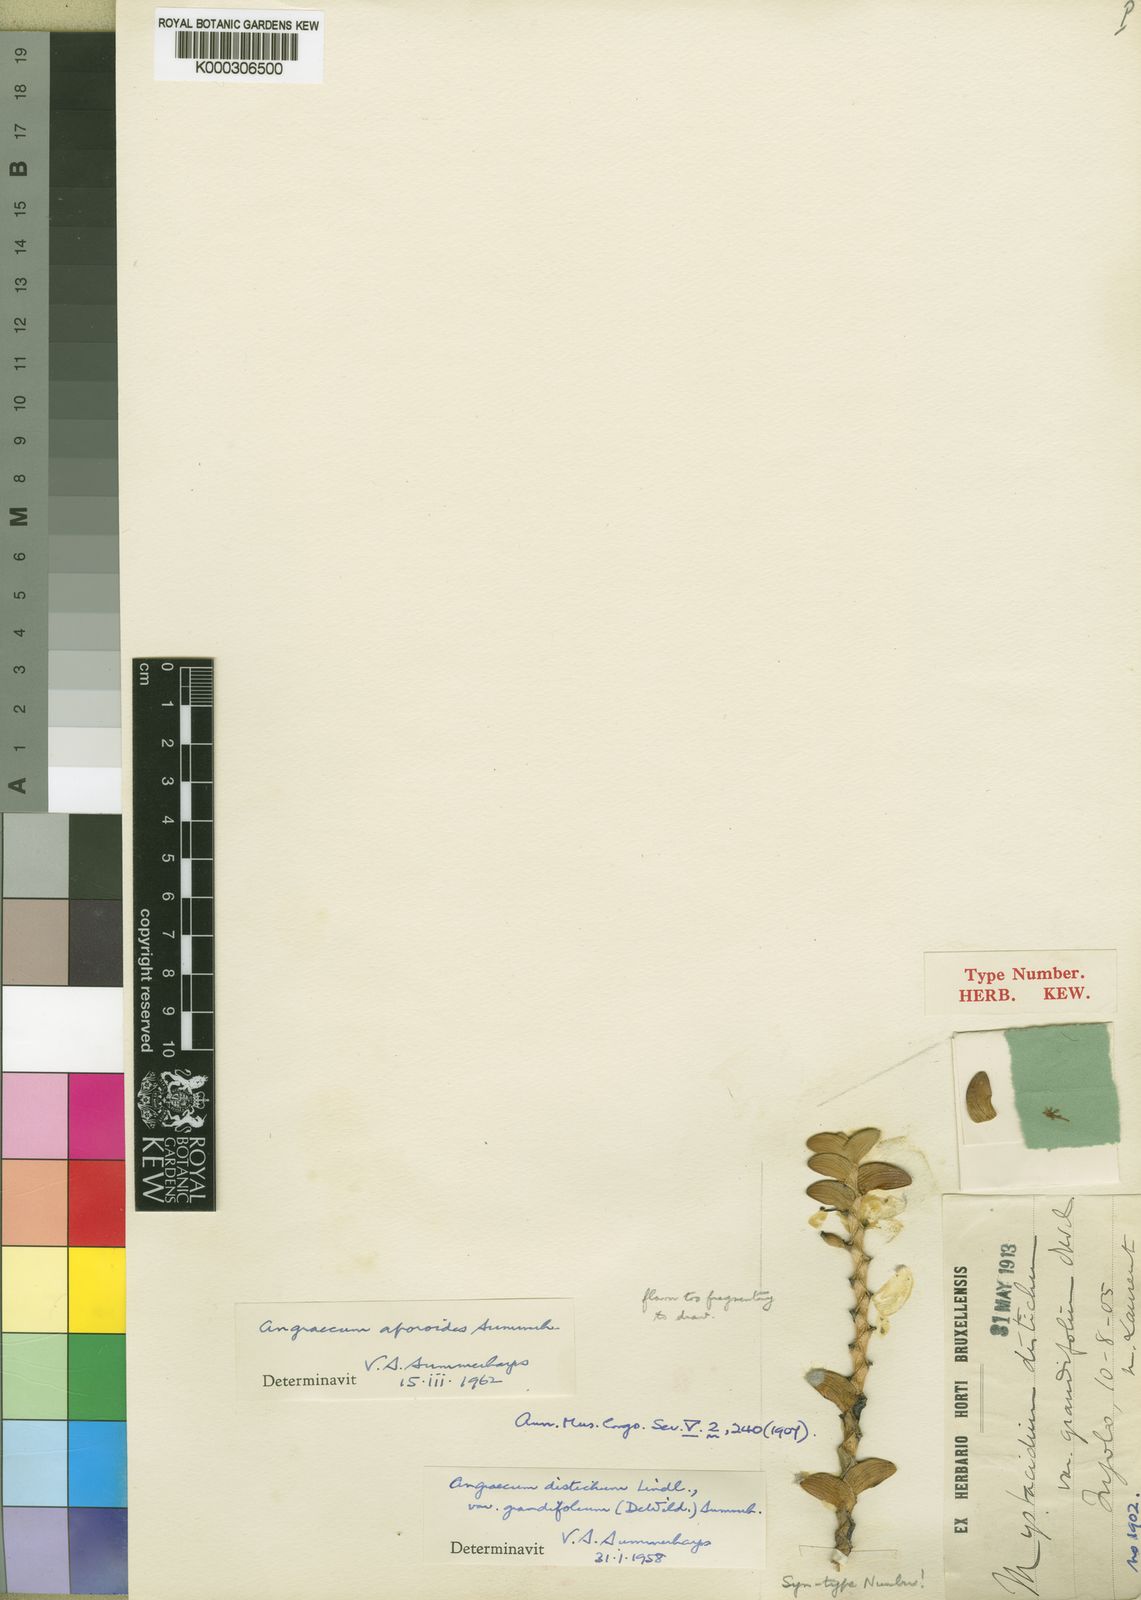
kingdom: Plantae
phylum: Tracheophyta
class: Liliopsida
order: Asparagales
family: Orchidaceae
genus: Angraecum
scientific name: Angraecum aporoides
